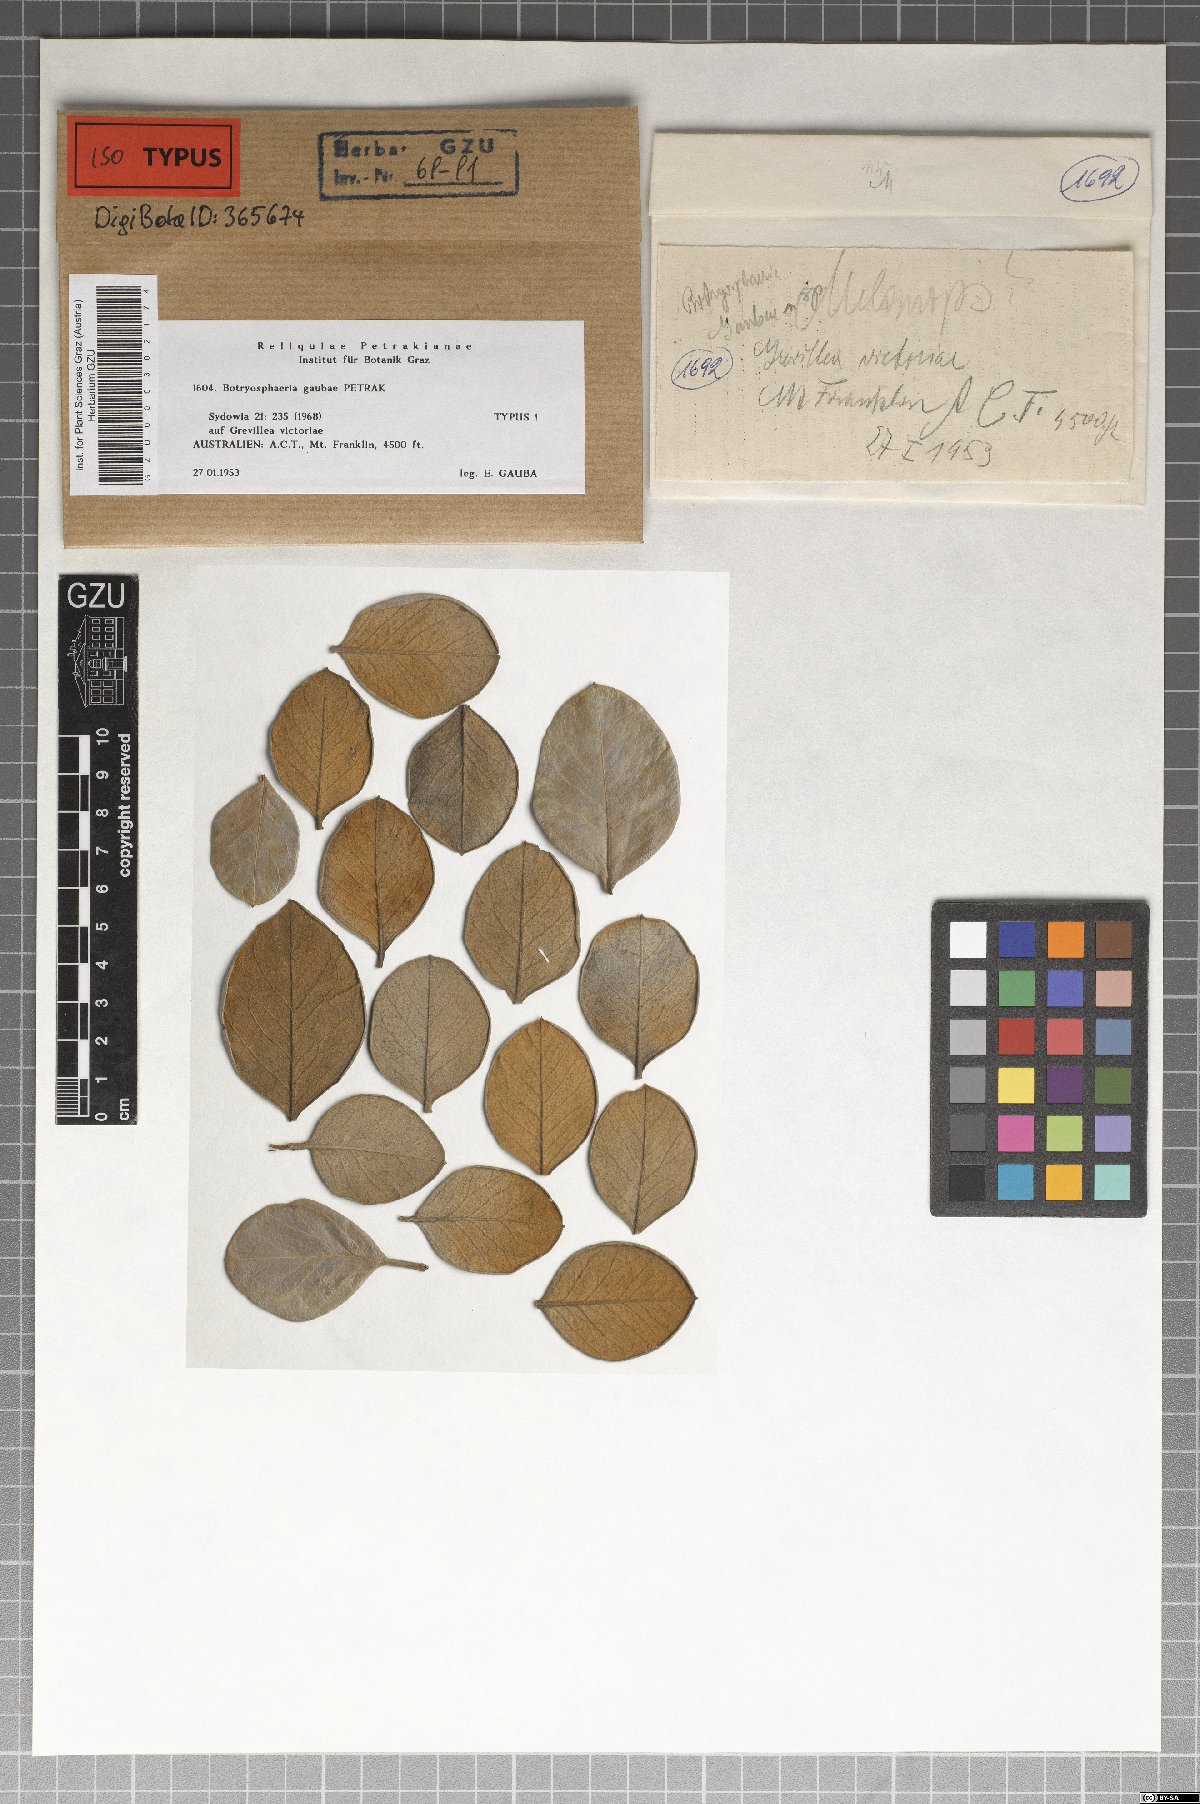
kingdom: Fungi
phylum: Ascomycota
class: Dothideomycetes
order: Botryosphaeriales
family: Botryosphaeriaceae
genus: Botryosphaeria
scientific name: Botryosphaeria gaubae
